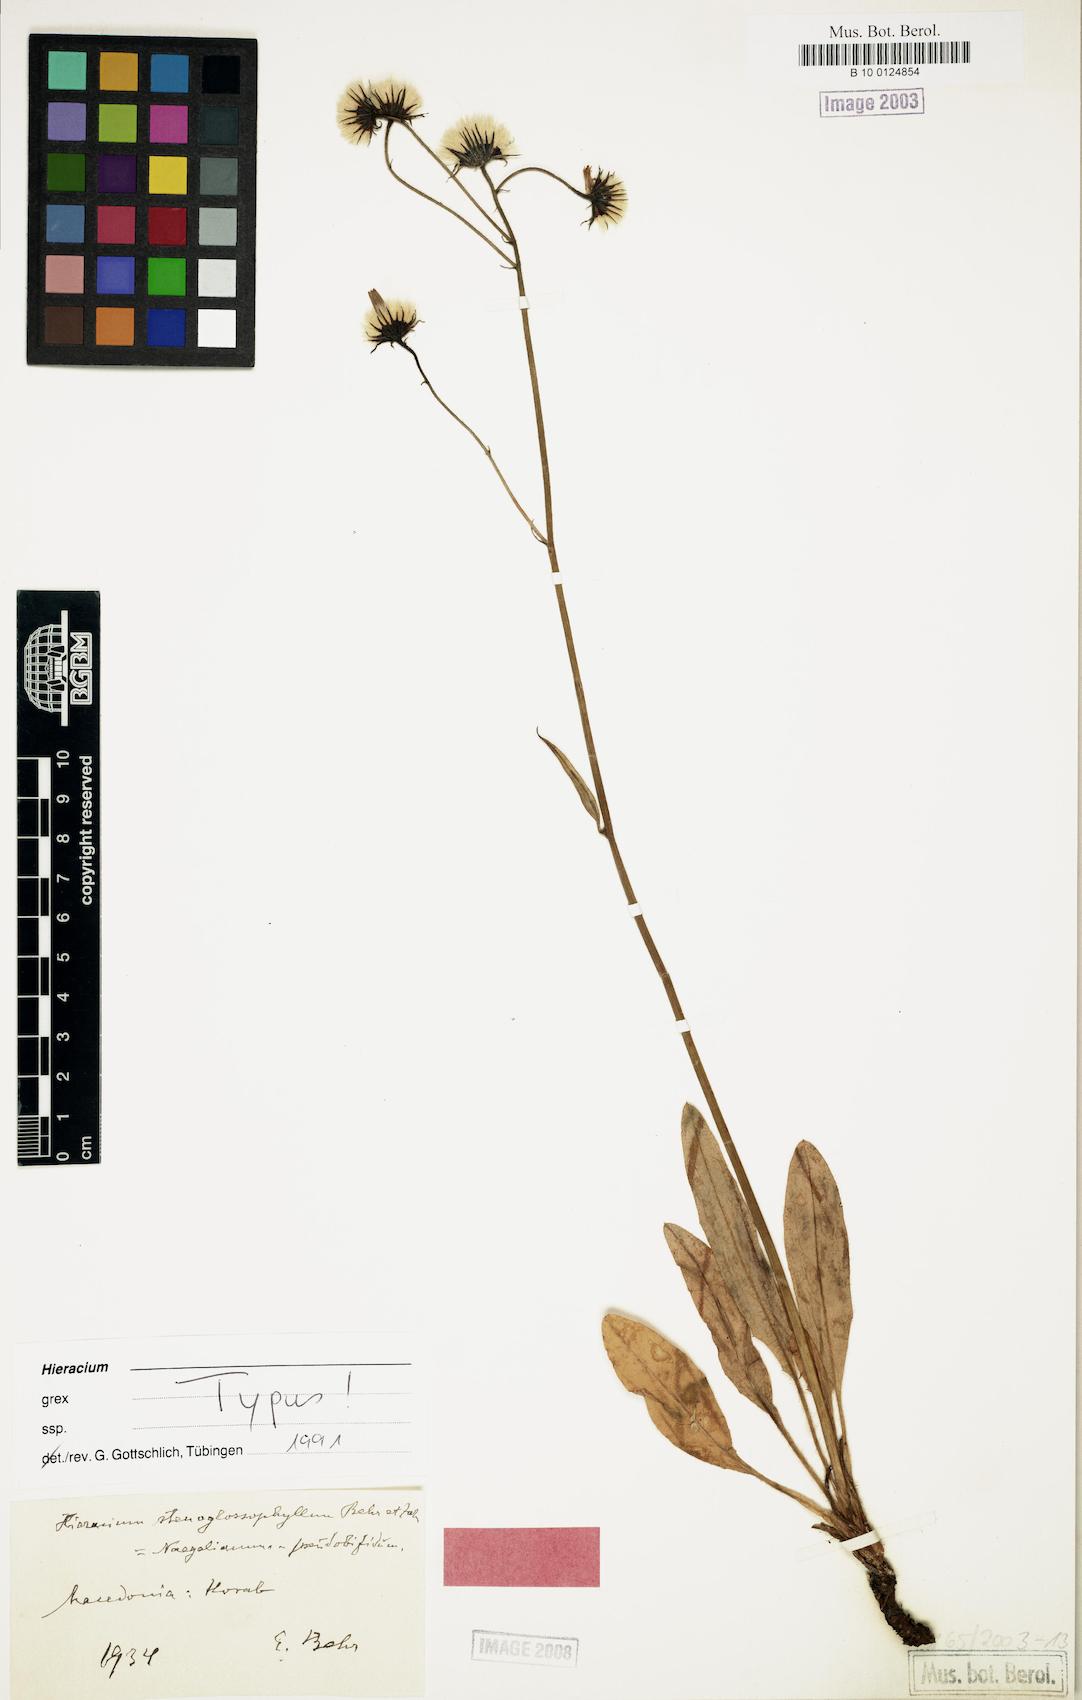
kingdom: Plantae
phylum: Tracheophyta
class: Magnoliopsida
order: Asterales
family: Asteraceae
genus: Hieracium
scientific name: Hieracium oroglaucum
